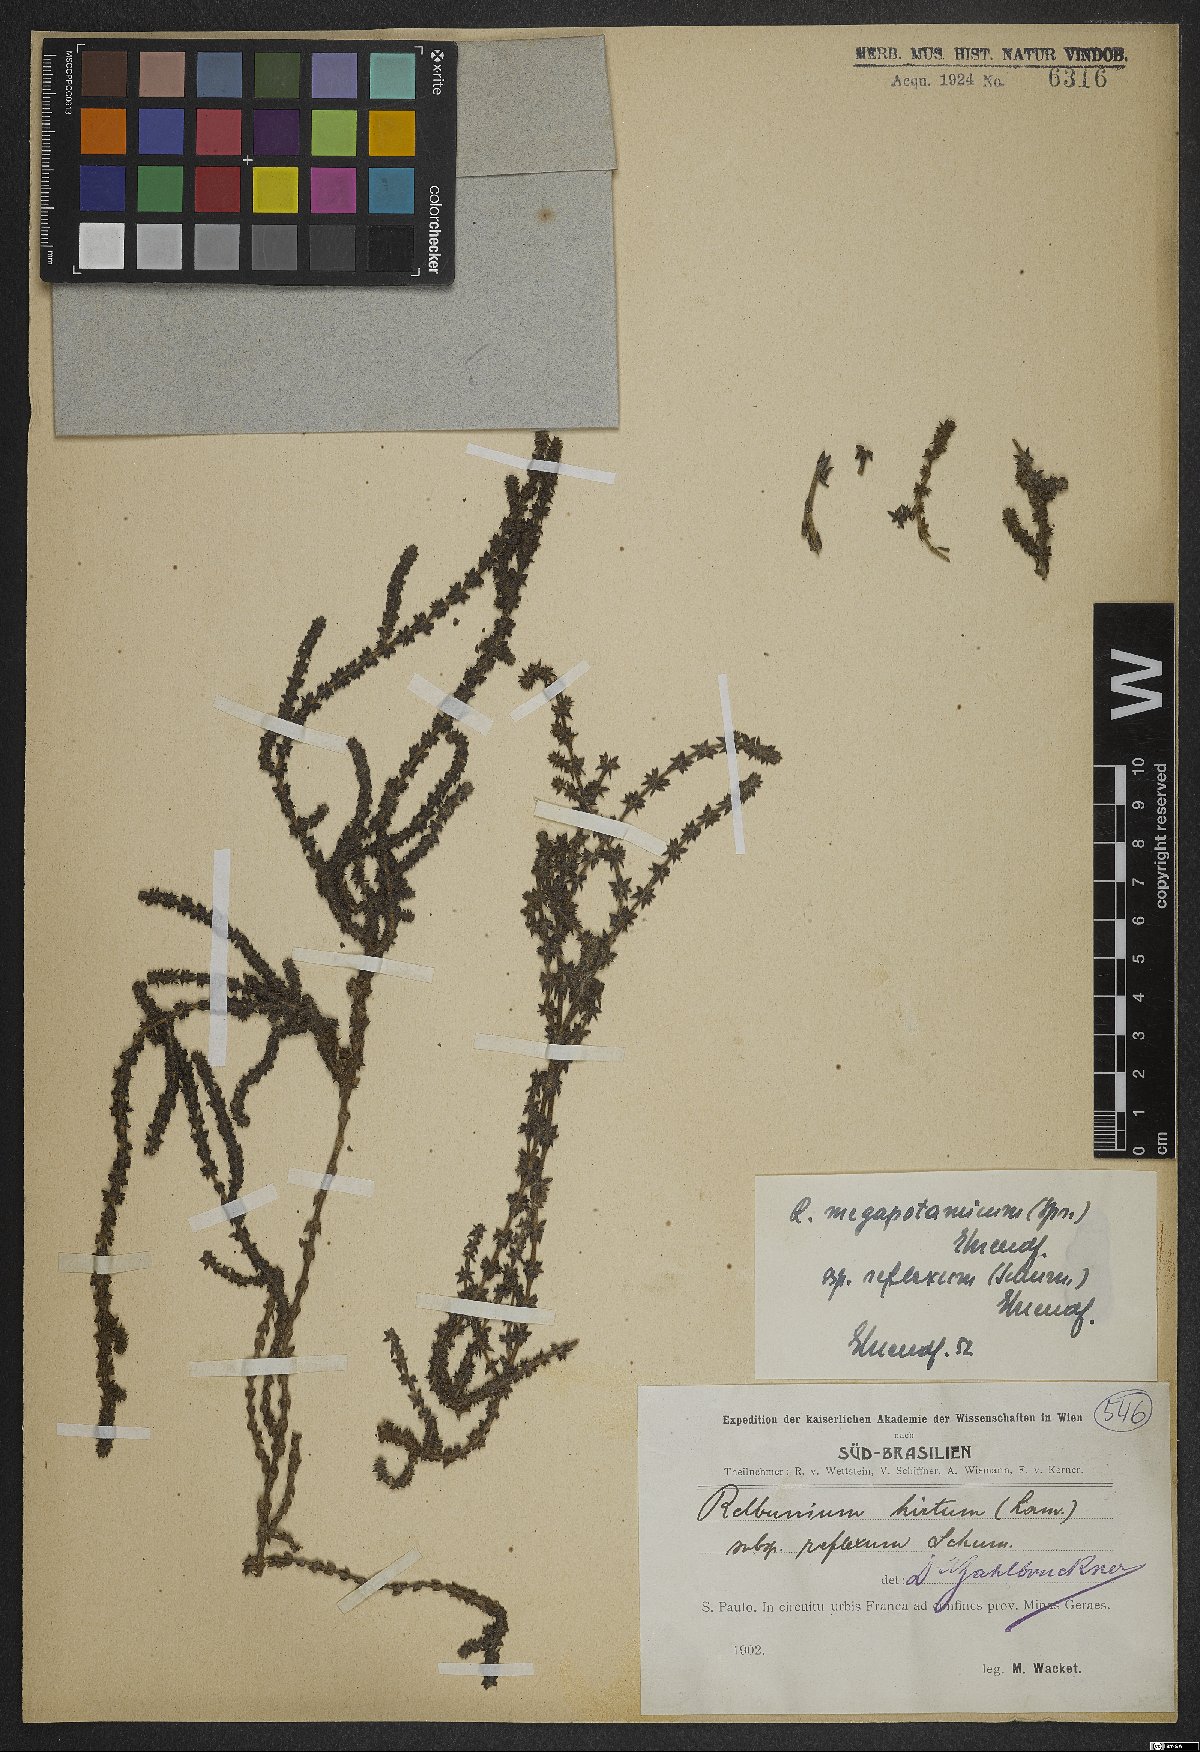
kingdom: Plantae
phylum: Tracheophyta
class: Magnoliopsida
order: Gentianales
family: Rubiaceae
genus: Galium
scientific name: Galium megapotamicum
